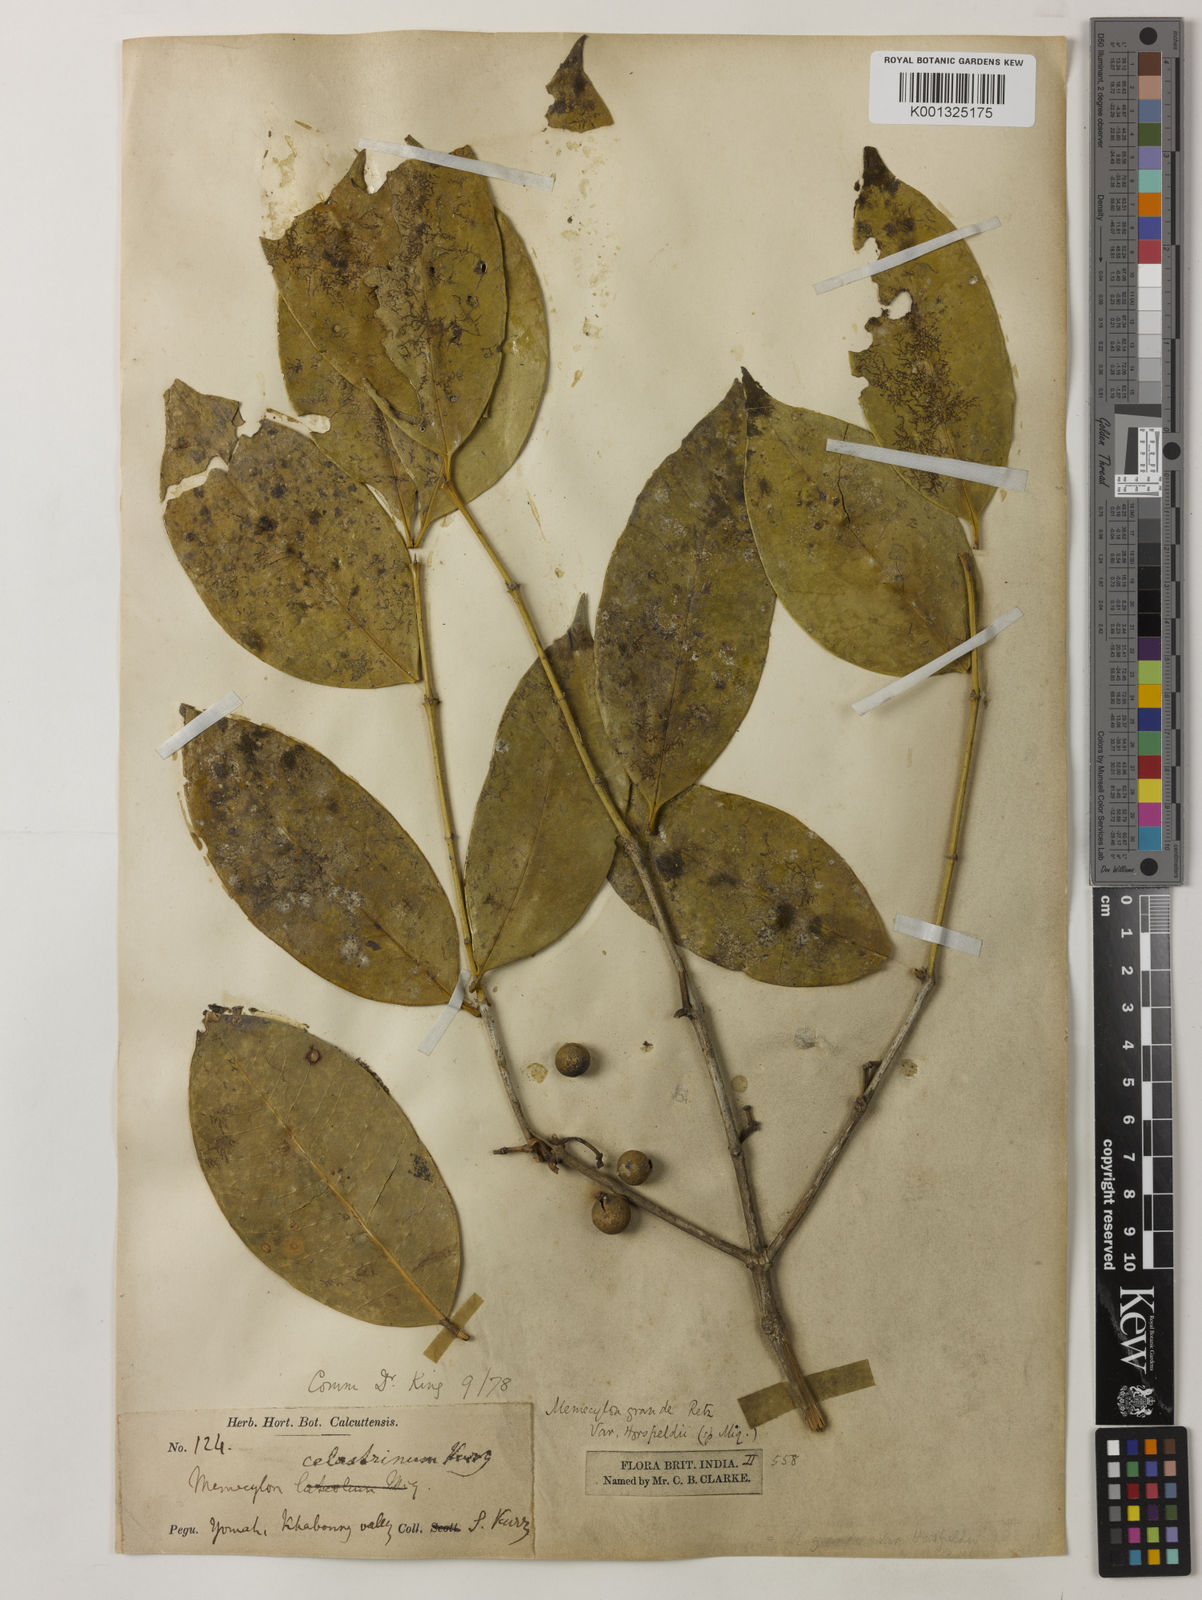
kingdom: Plantae
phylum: Tracheophyta
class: Magnoliopsida
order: Myrtales
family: Melastomataceae
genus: Memecylon
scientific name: Memecylon grande
